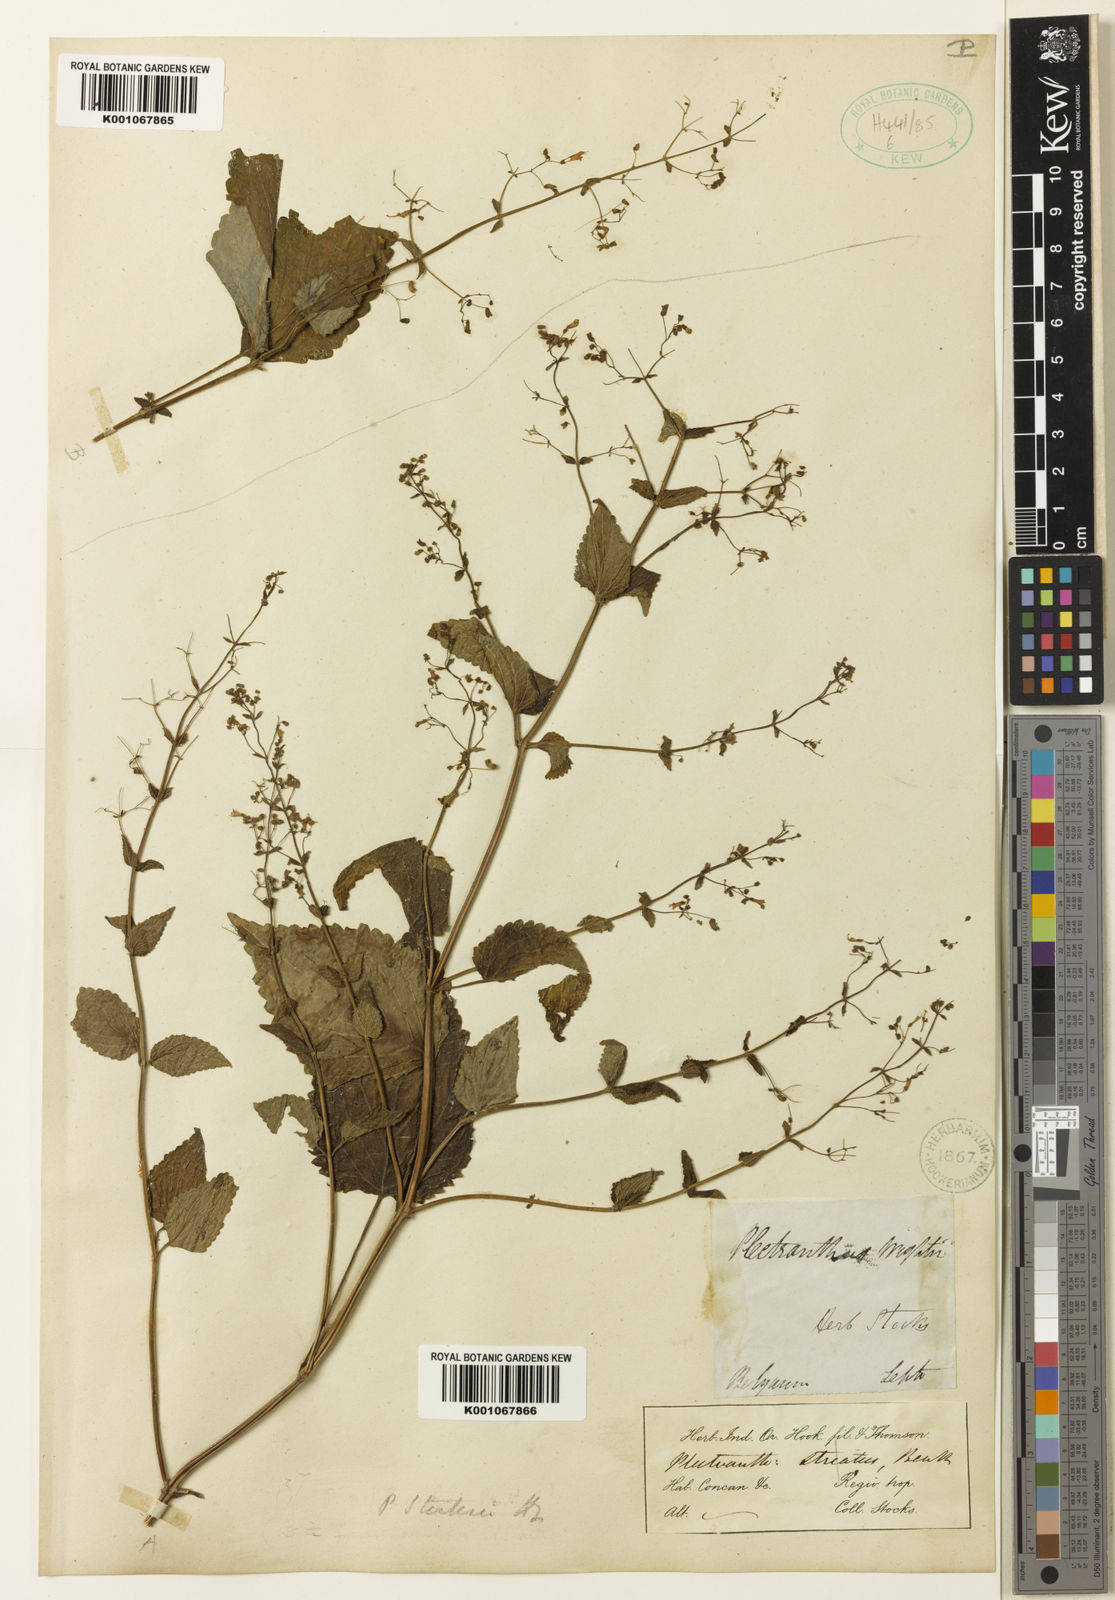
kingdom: Plantae
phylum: Tracheophyta
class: Magnoliopsida
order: Lamiales
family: Lamiaceae
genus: Isodon
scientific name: Isodon lophanthoides
